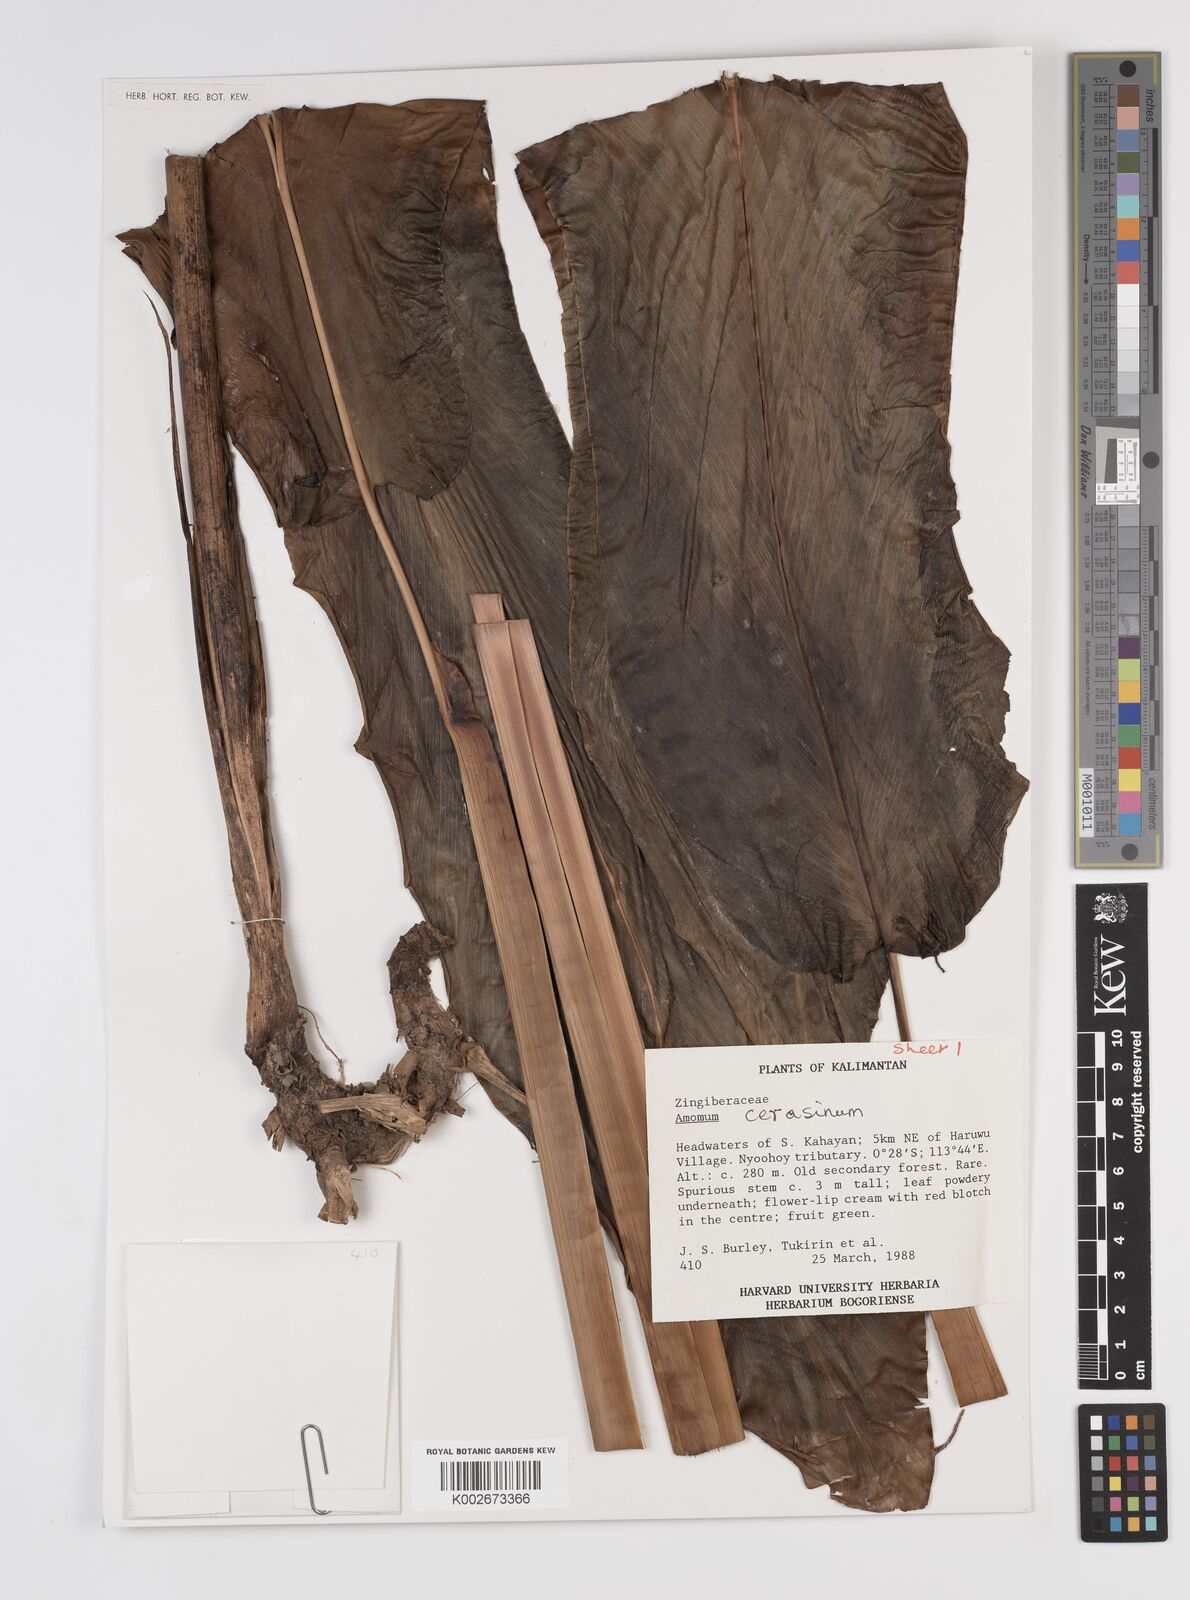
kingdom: Plantae
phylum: Tracheophyta
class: Liliopsida
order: Zingiberales
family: Zingiberaceae
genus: Meistera
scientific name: Meistera cerasina
